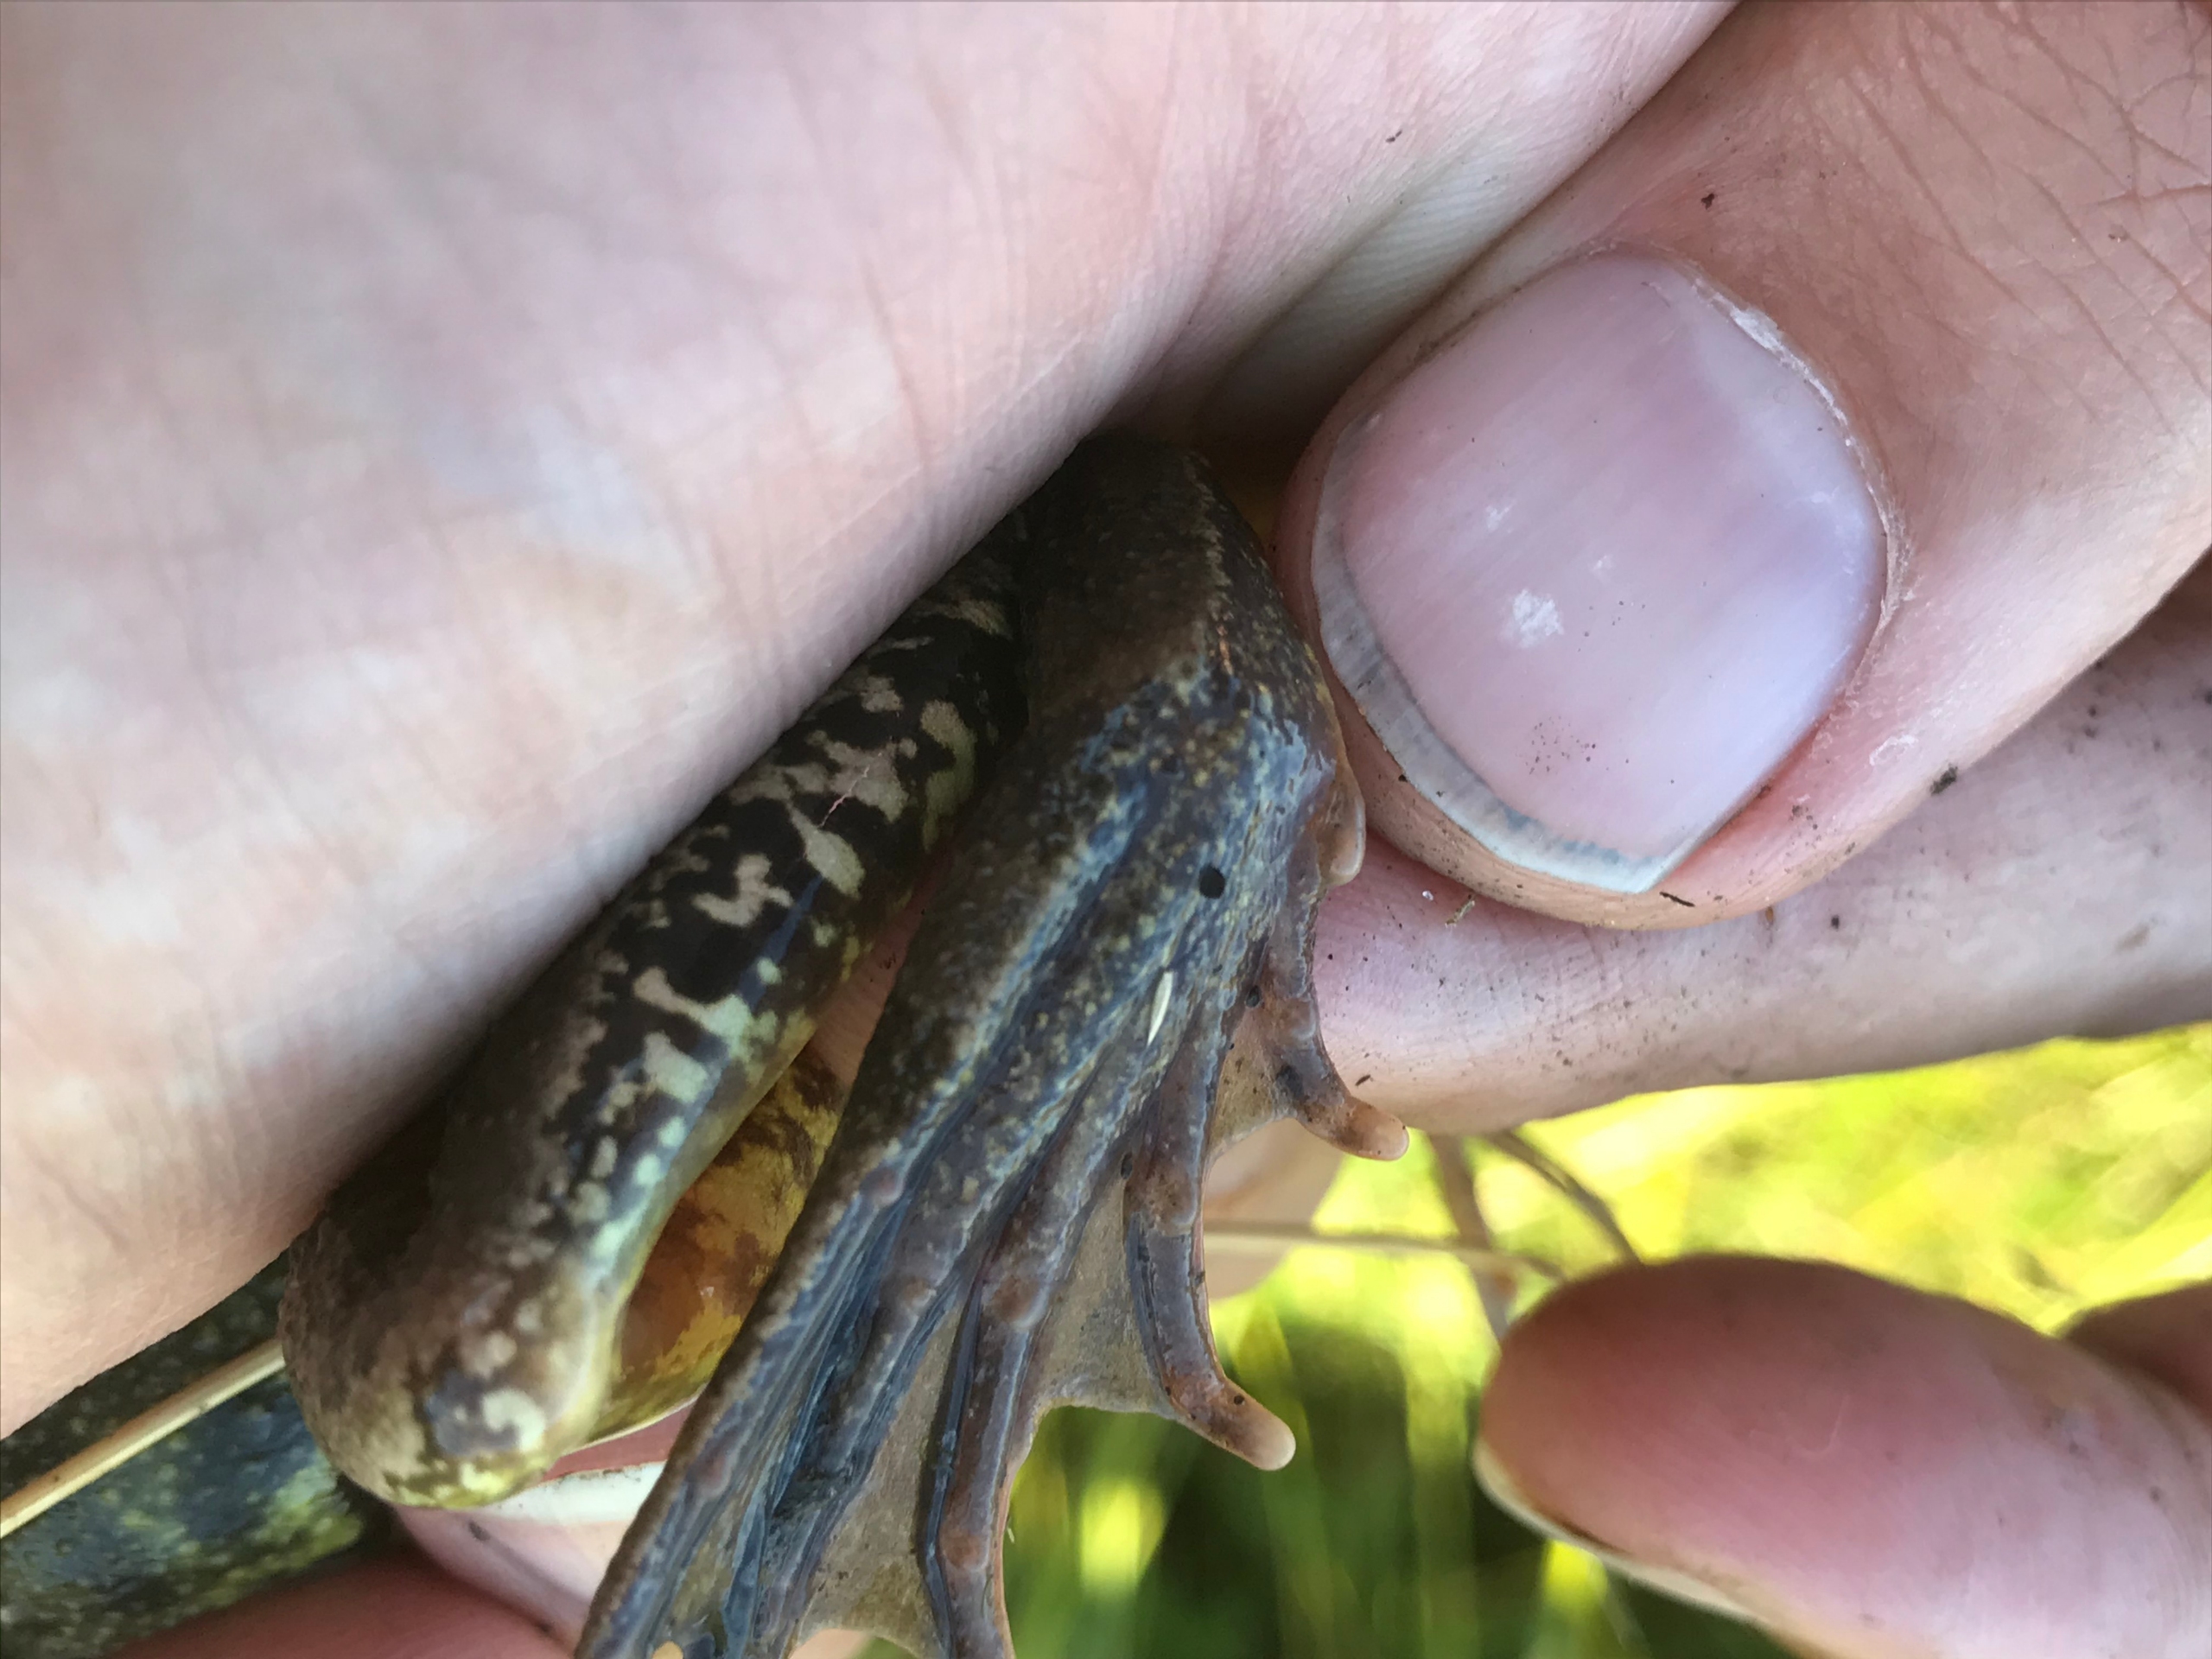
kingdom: Animalia
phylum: Chordata
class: Amphibia
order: Anura
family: Ranidae
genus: Rana
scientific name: Rana temporaria
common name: Butsnudet frø
